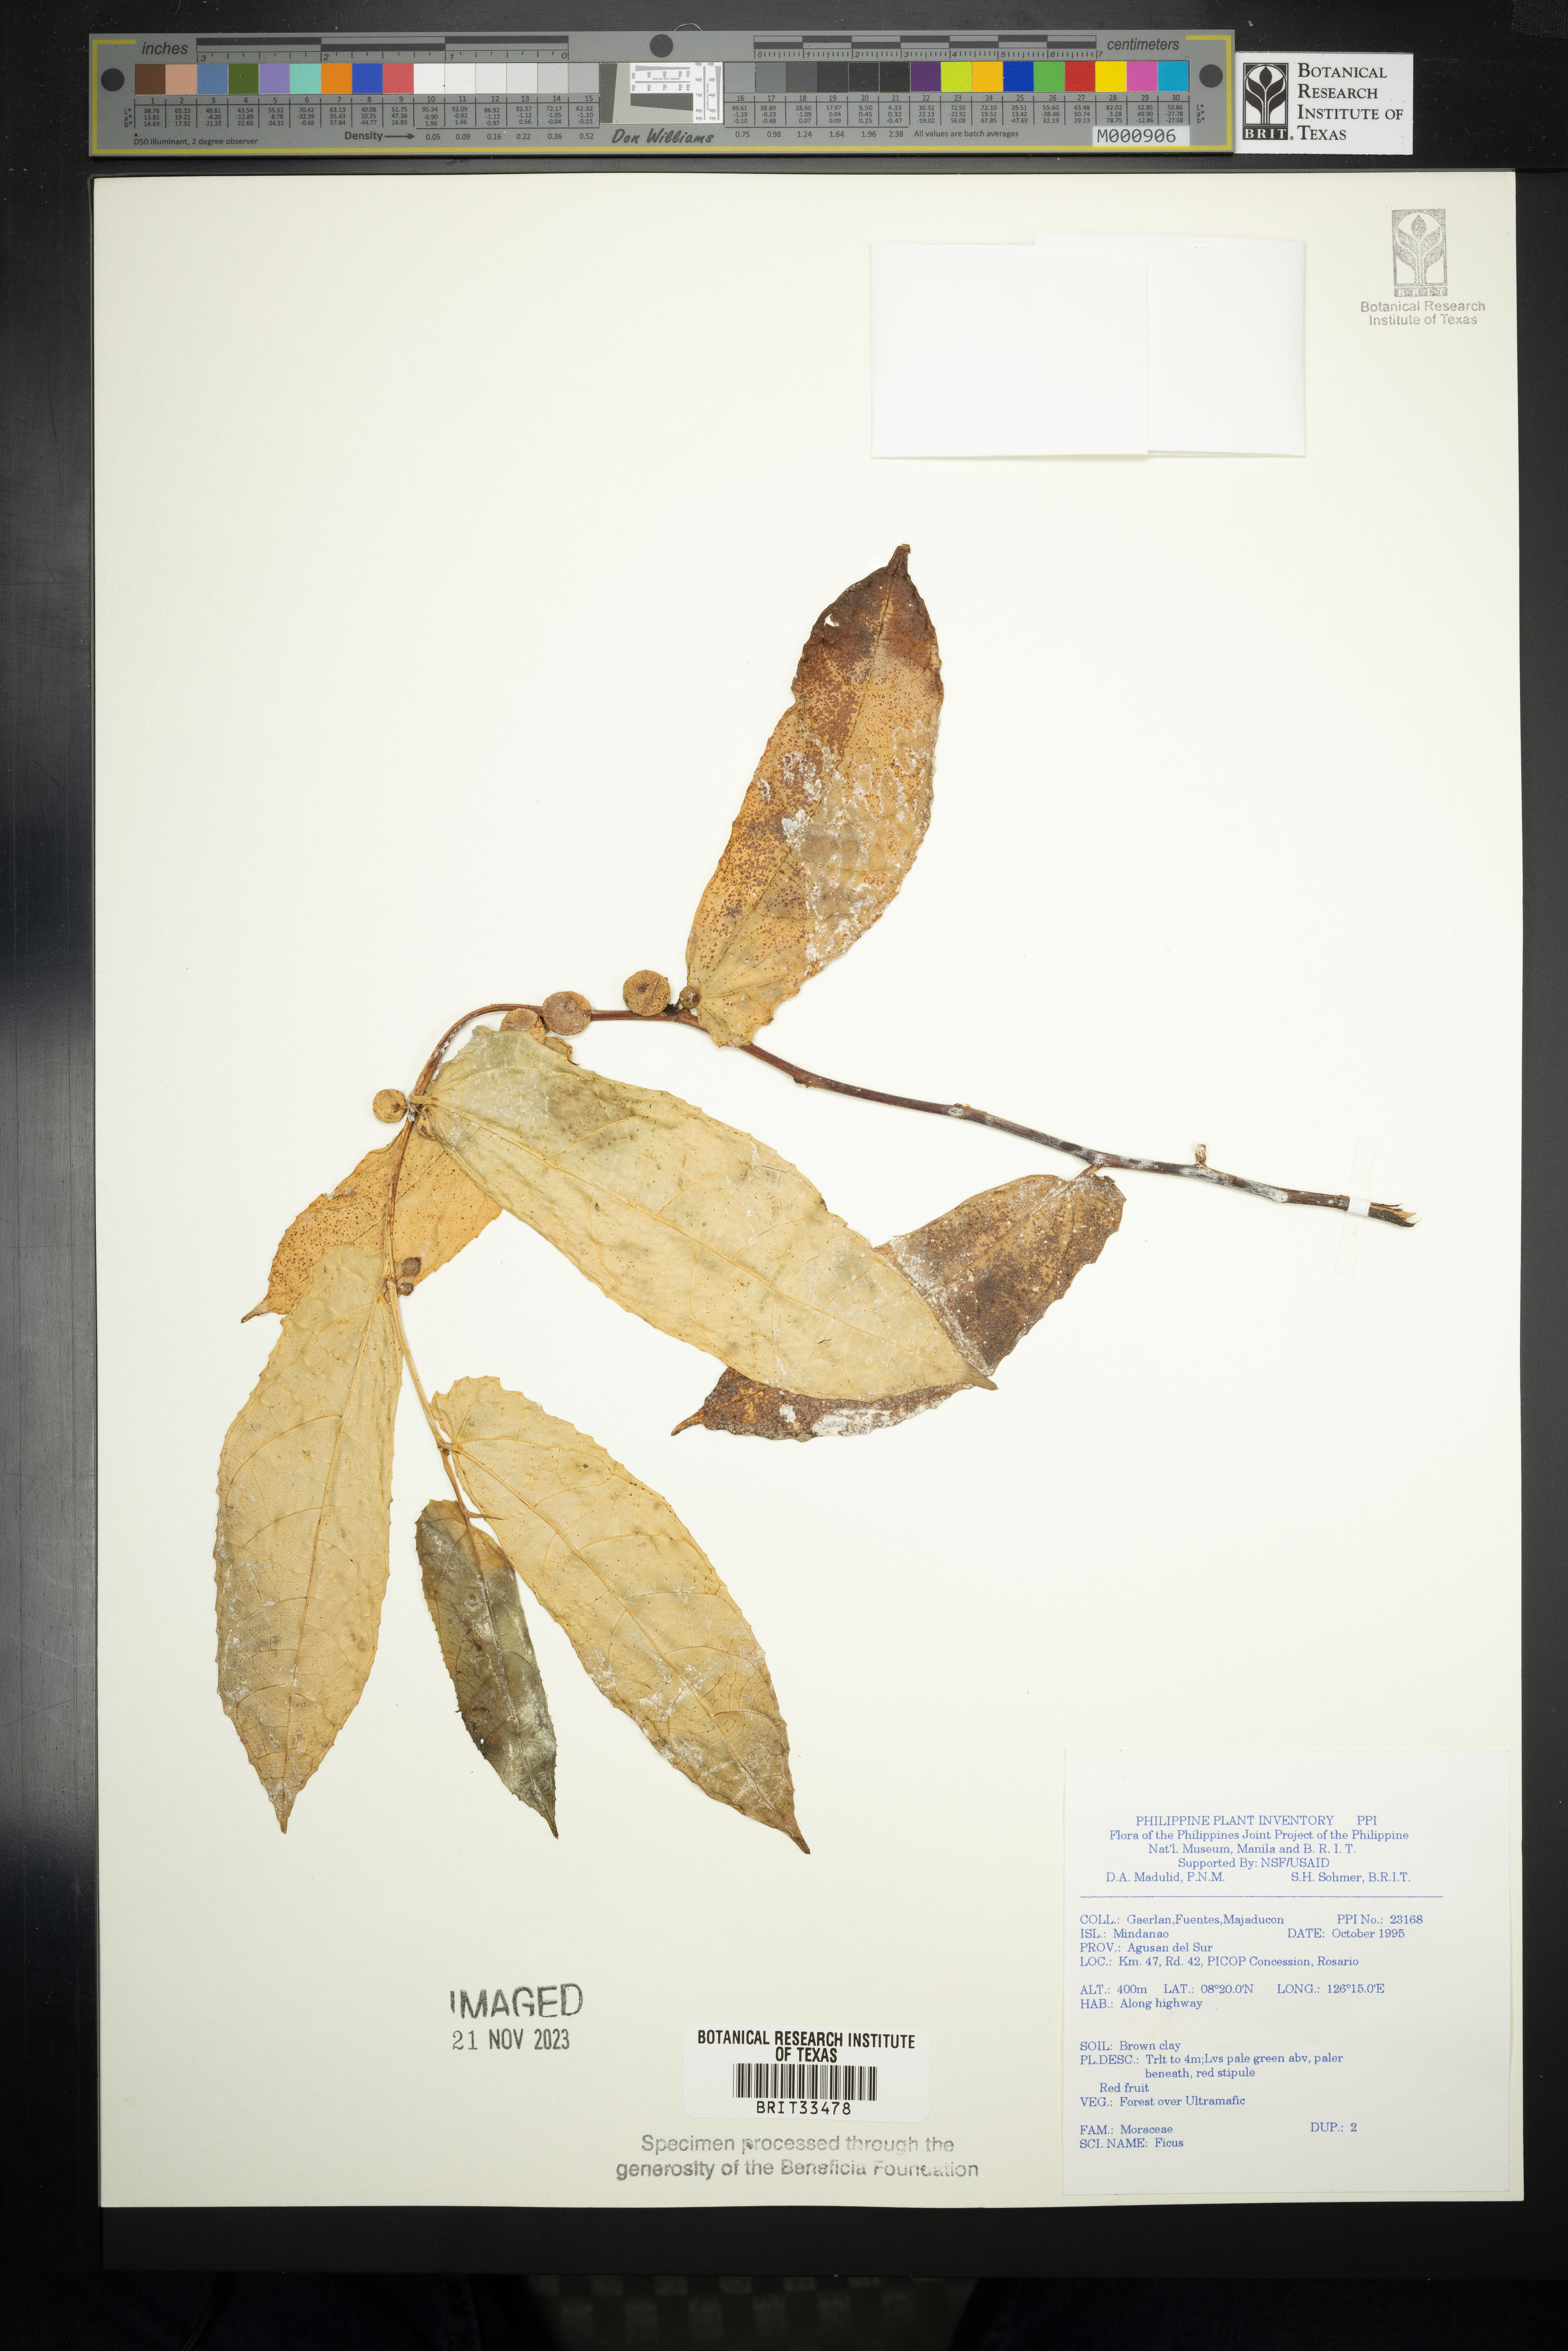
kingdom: Plantae
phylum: Tracheophyta
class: Magnoliopsida
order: Rosales
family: Moraceae
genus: Ficus
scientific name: Ficus
